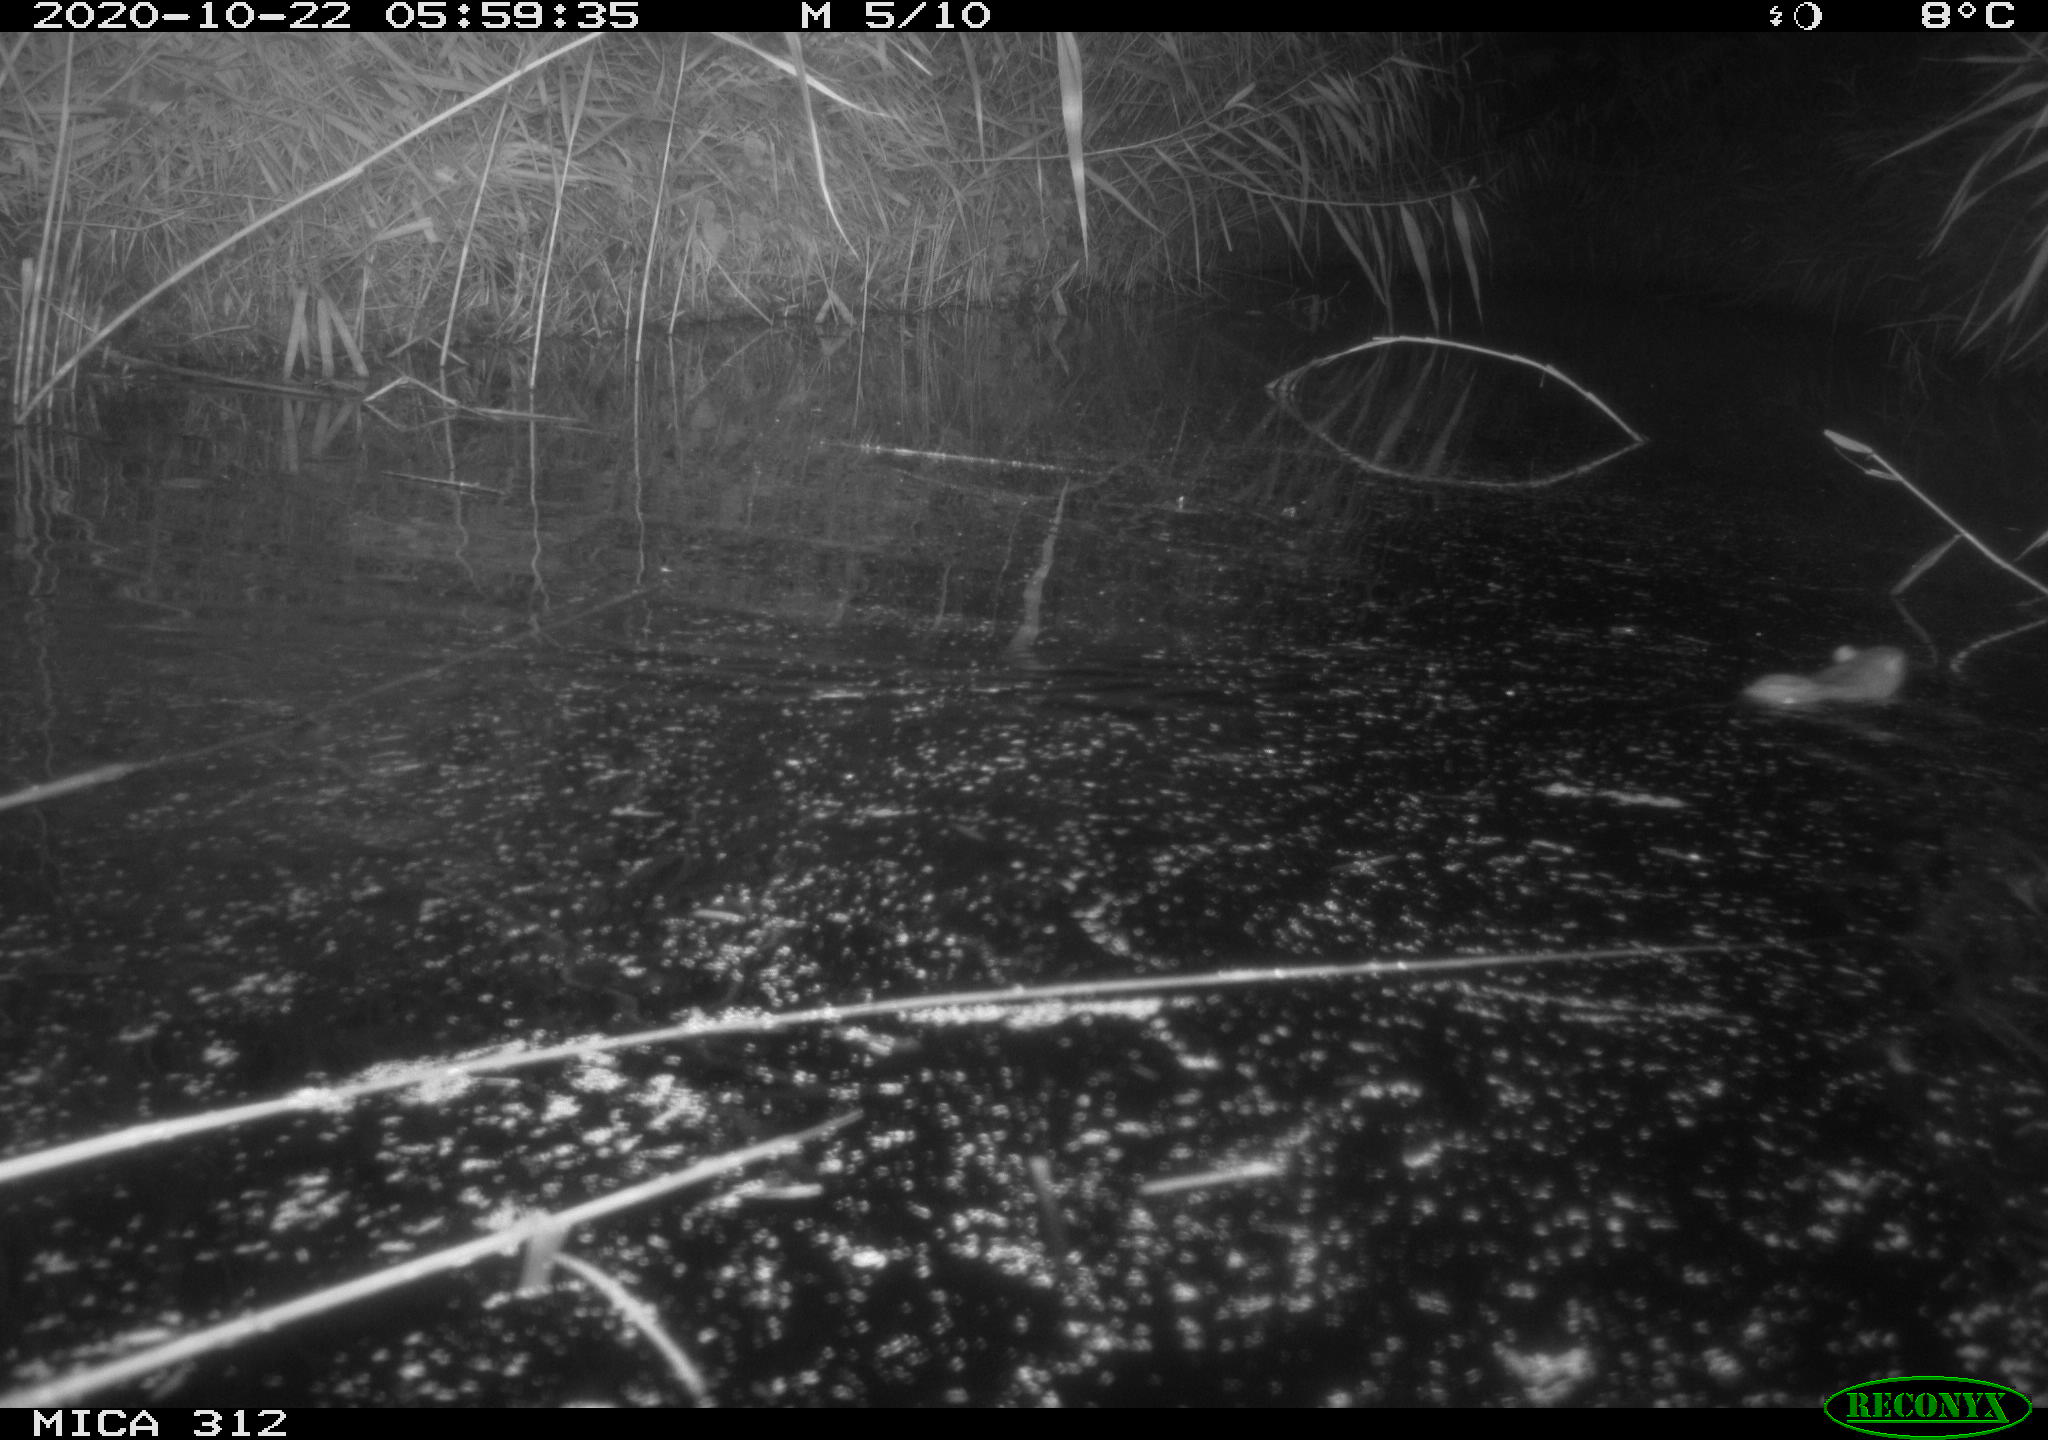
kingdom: Animalia
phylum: Chordata
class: Mammalia
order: Rodentia
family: Muridae
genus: Rattus
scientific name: Rattus norvegicus
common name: Brown rat
